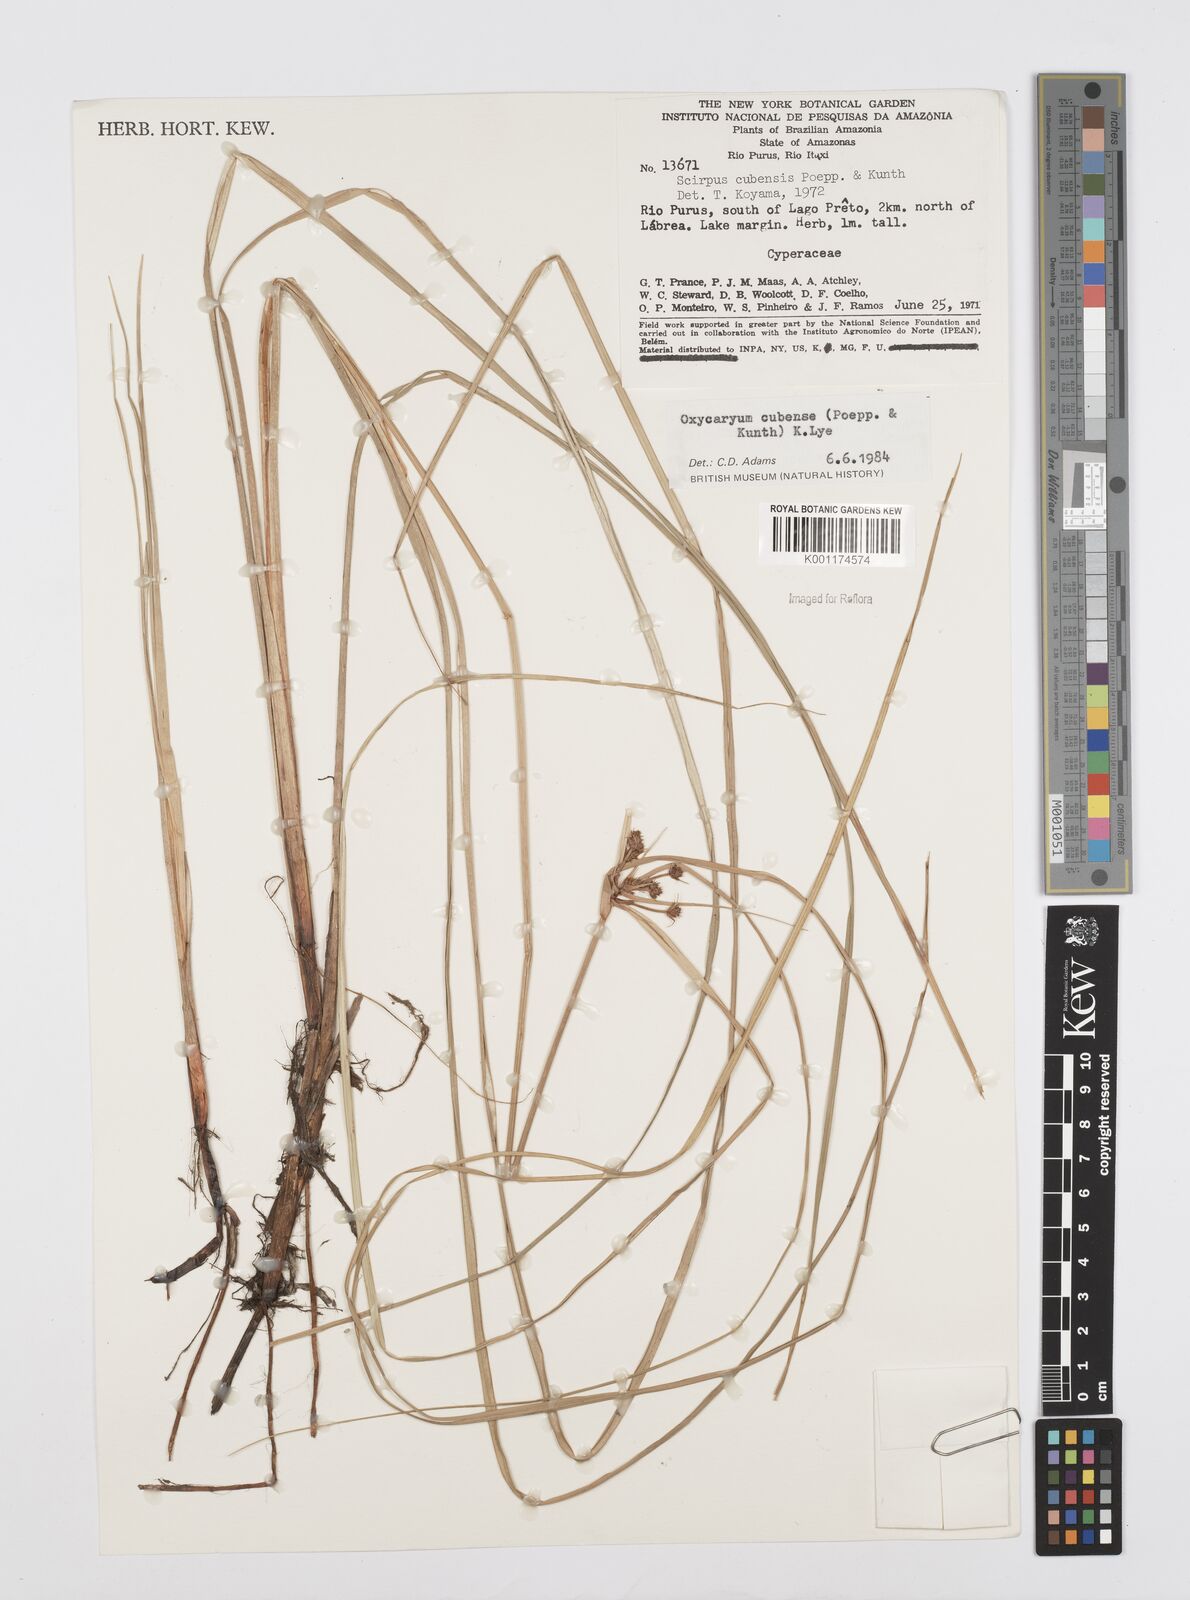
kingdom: Plantae
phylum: Tracheophyta
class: Liliopsida
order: Poales
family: Cyperaceae
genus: Cyperus
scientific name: Cyperus elegans
